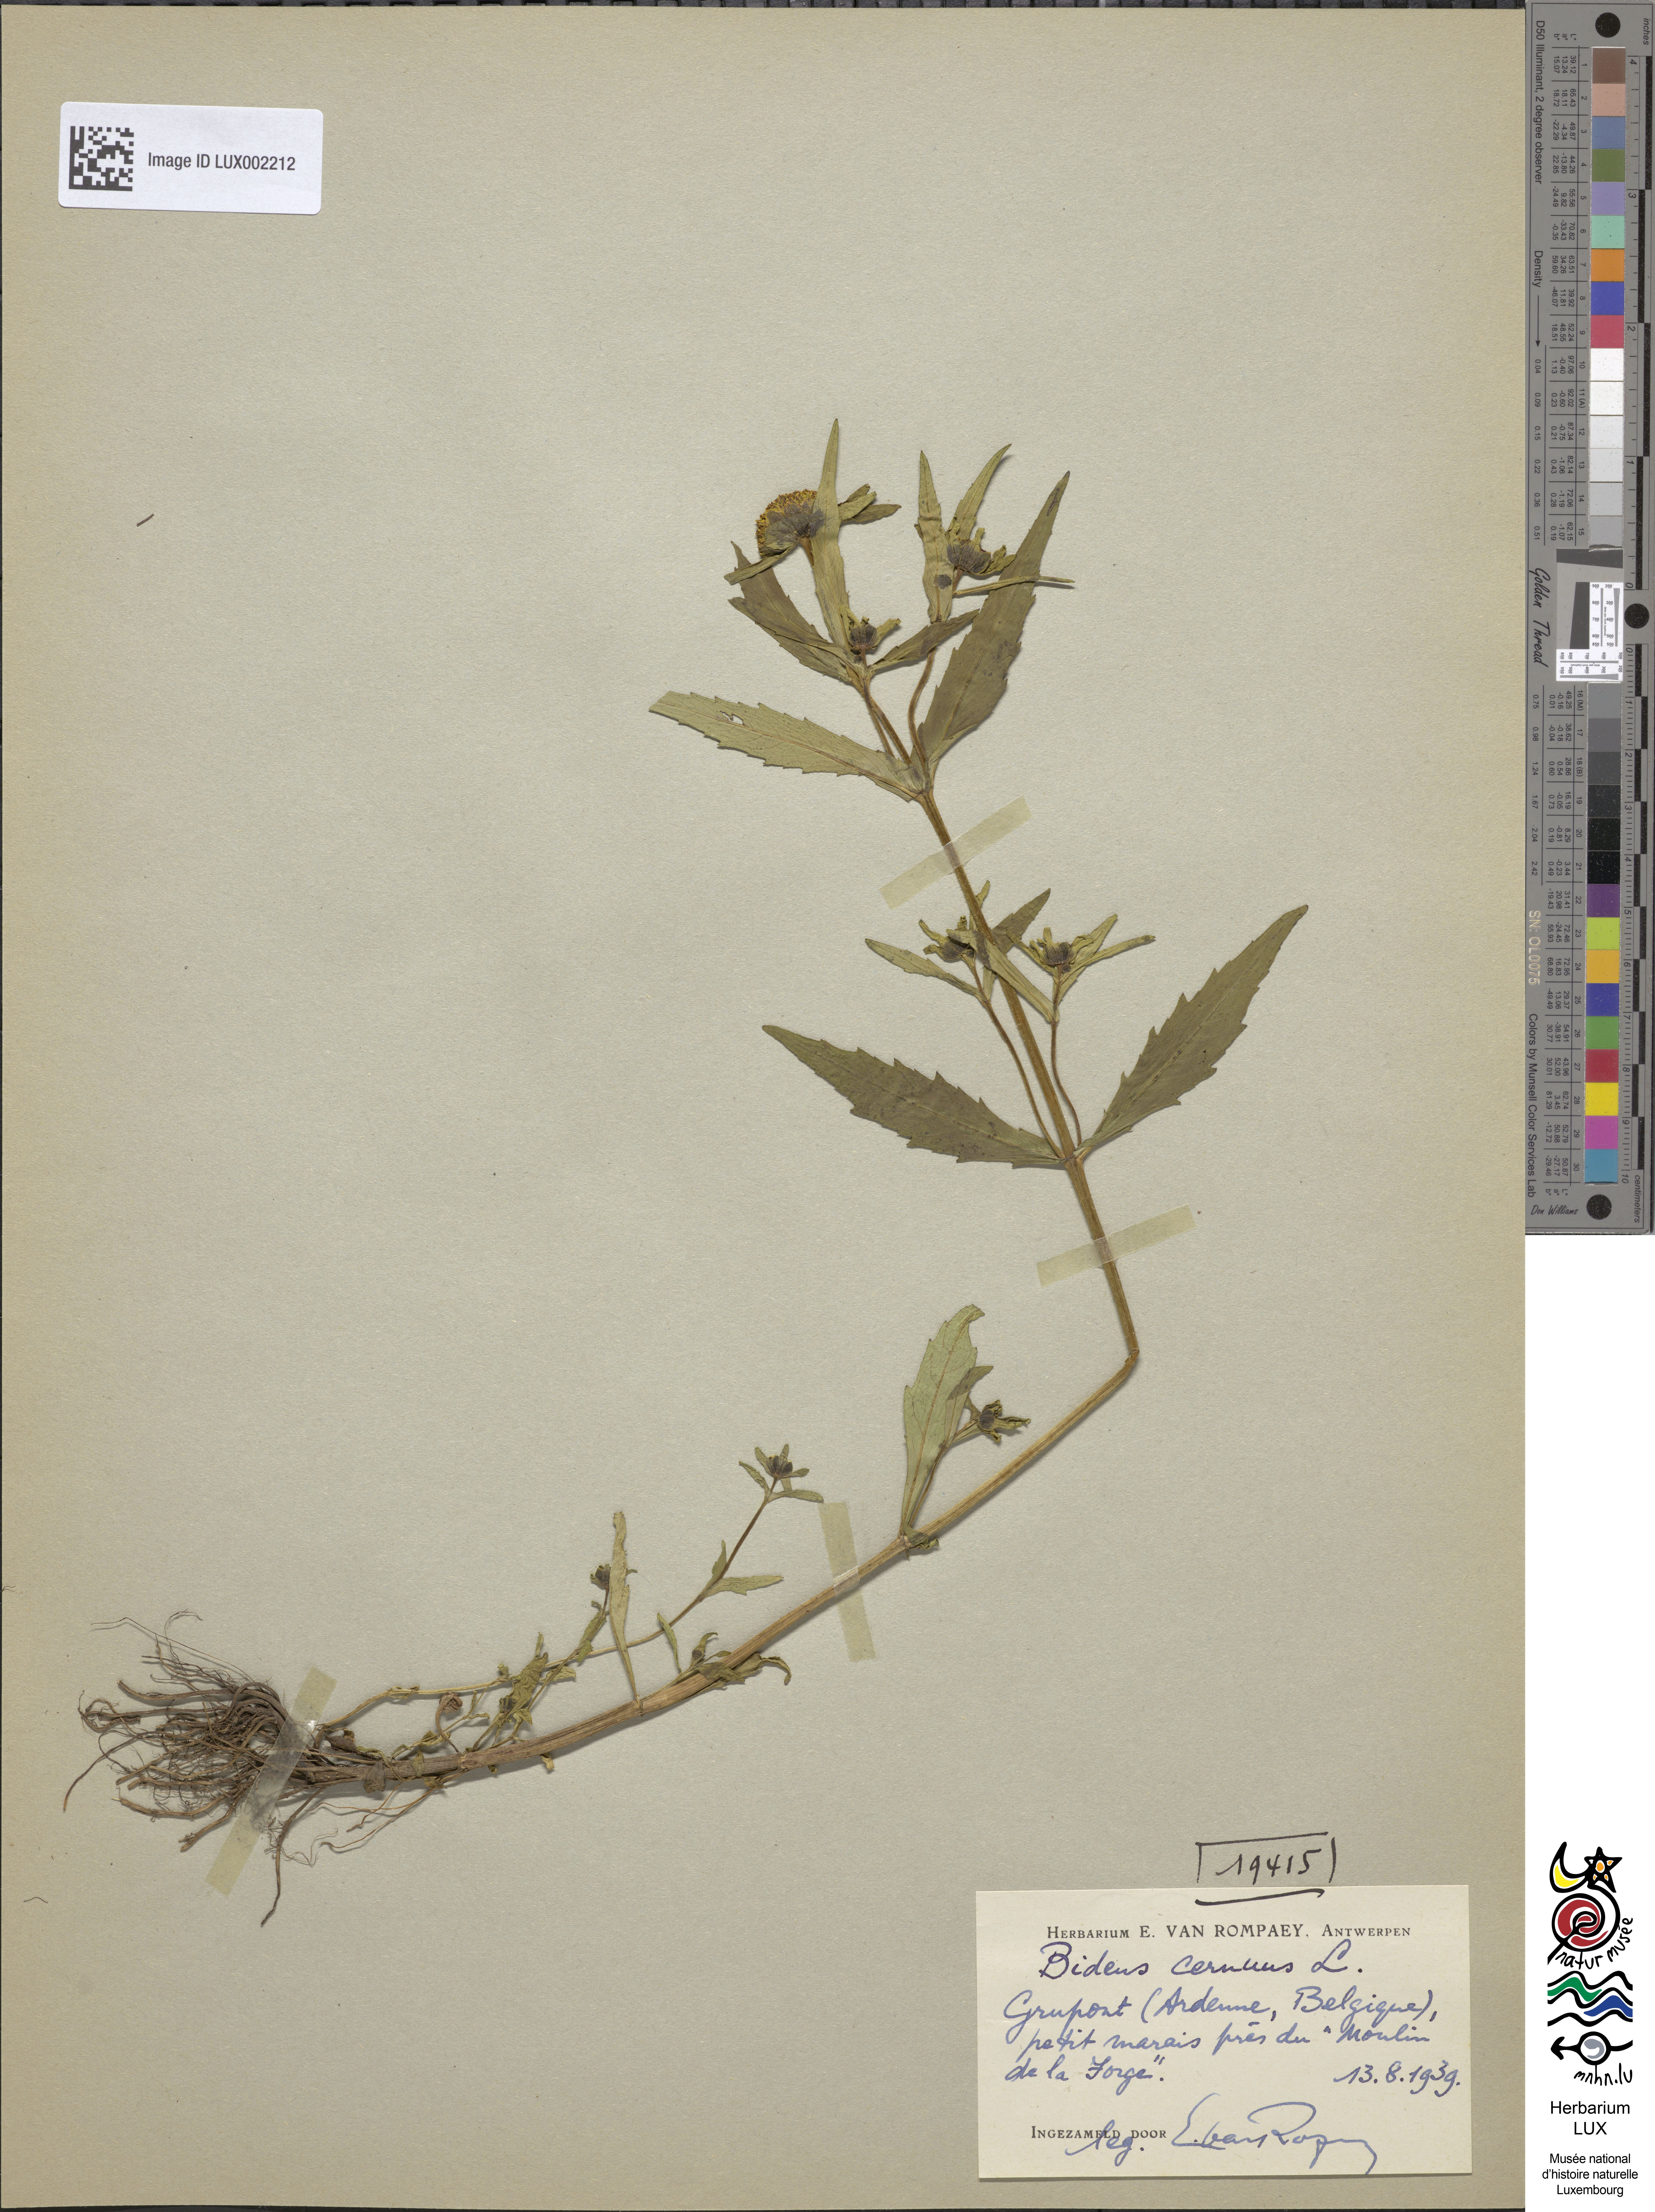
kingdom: Plantae
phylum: Tracheophyta
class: Magnoliopsida
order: Asterales
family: Asteraceae
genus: Bidens
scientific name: Bidens cernua
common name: Nodding bur-marigold
